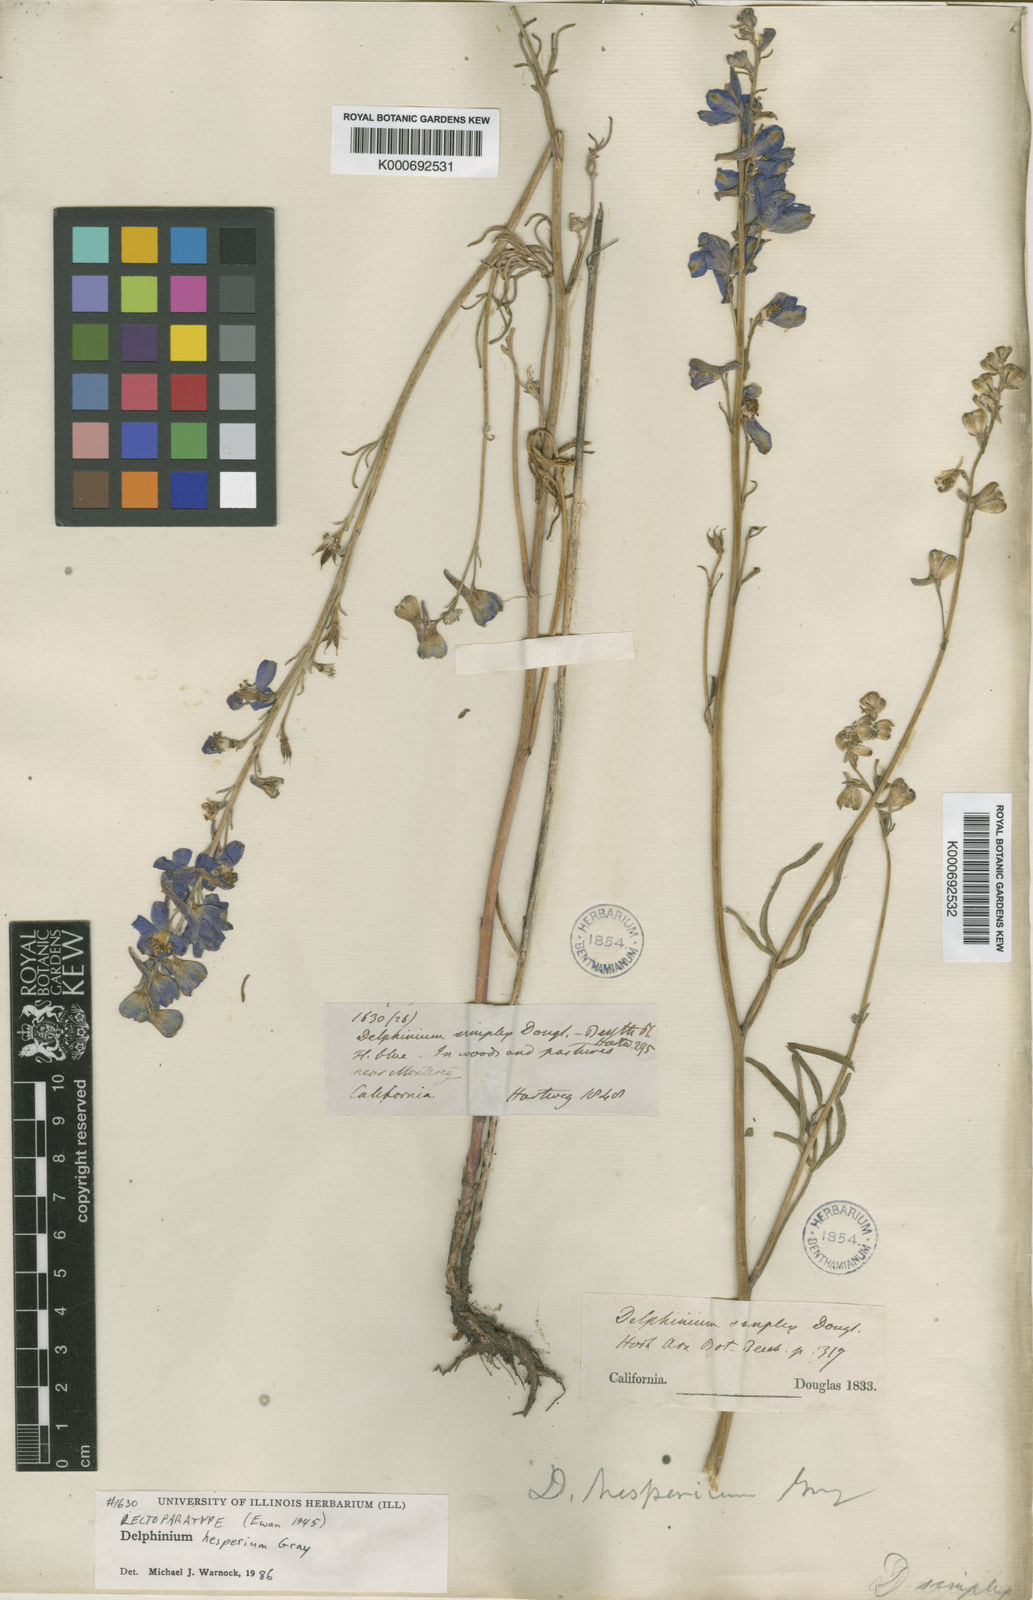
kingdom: Plantae
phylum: Tracheophyta
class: Magnoliopsida
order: Ranunculales
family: Ranunculaceae
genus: Delphinium
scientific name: Delphinium hesperium
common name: Western larkspur
